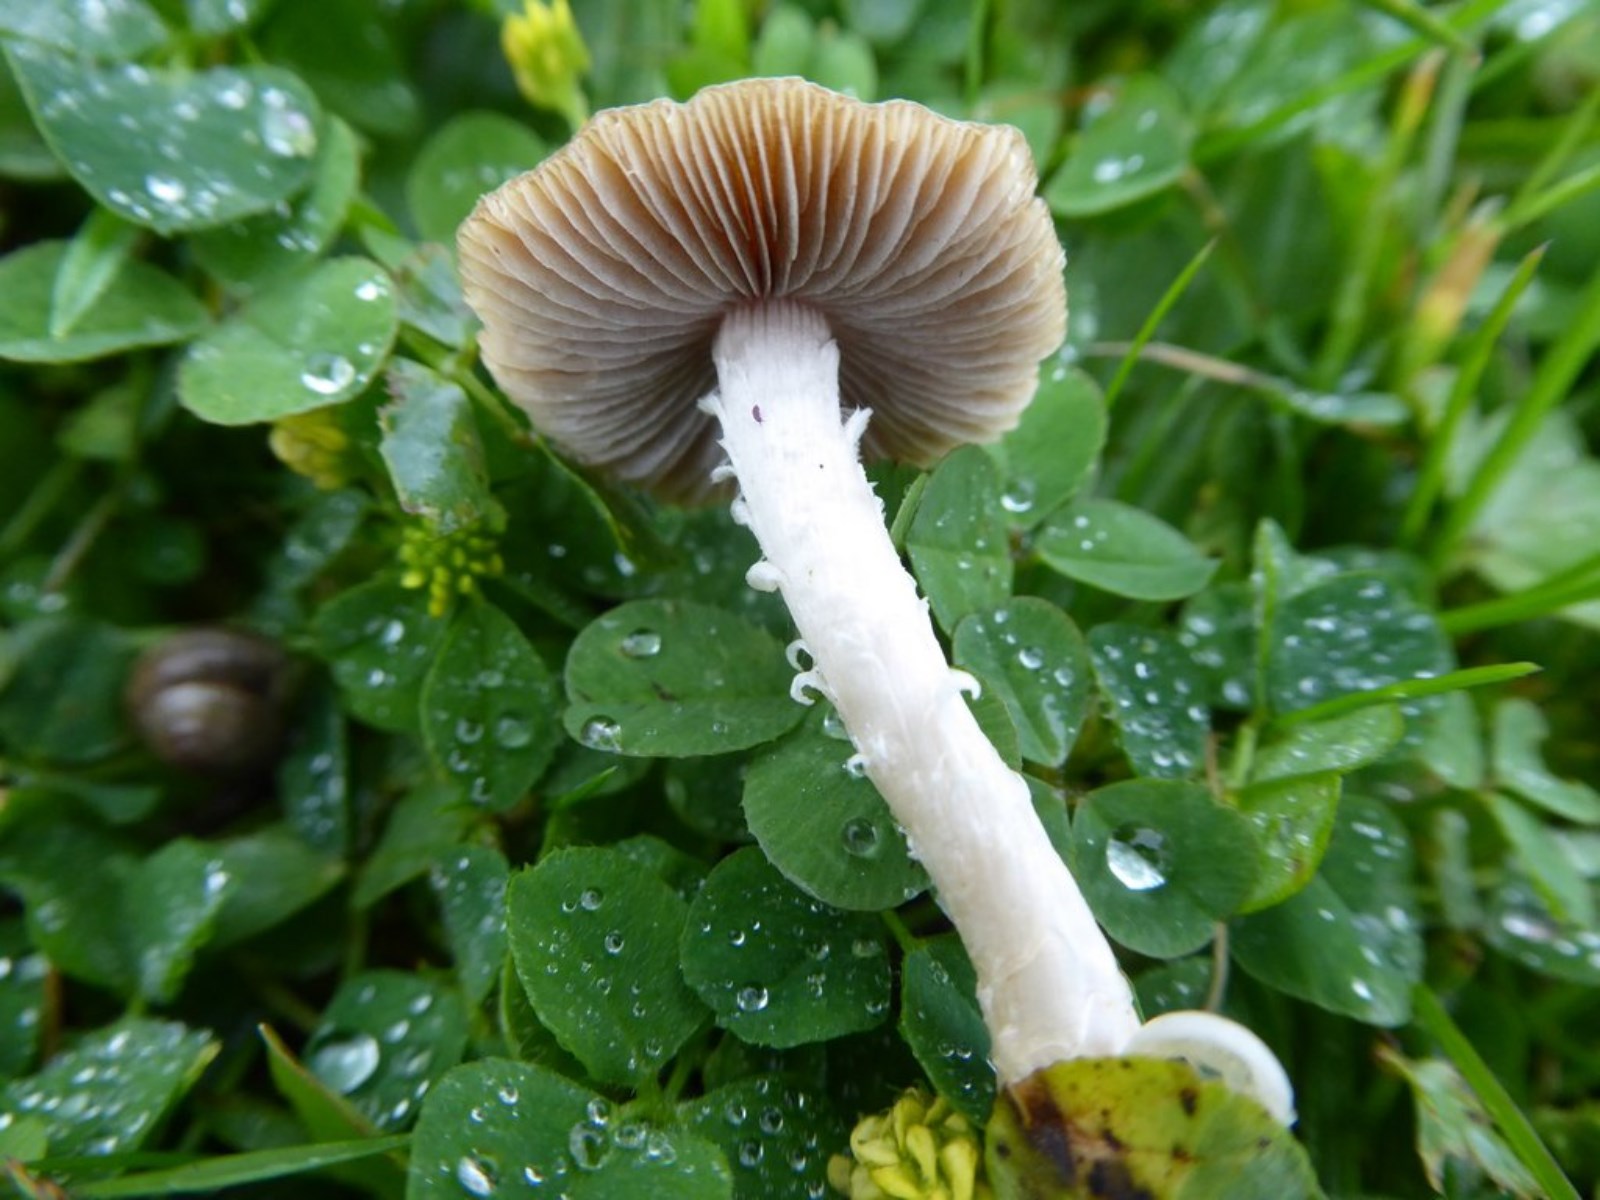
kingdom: Fungi
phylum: Basidiomycota
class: Agaricomycetes
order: Agaricales
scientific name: Agaricales
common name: champignonordenen
